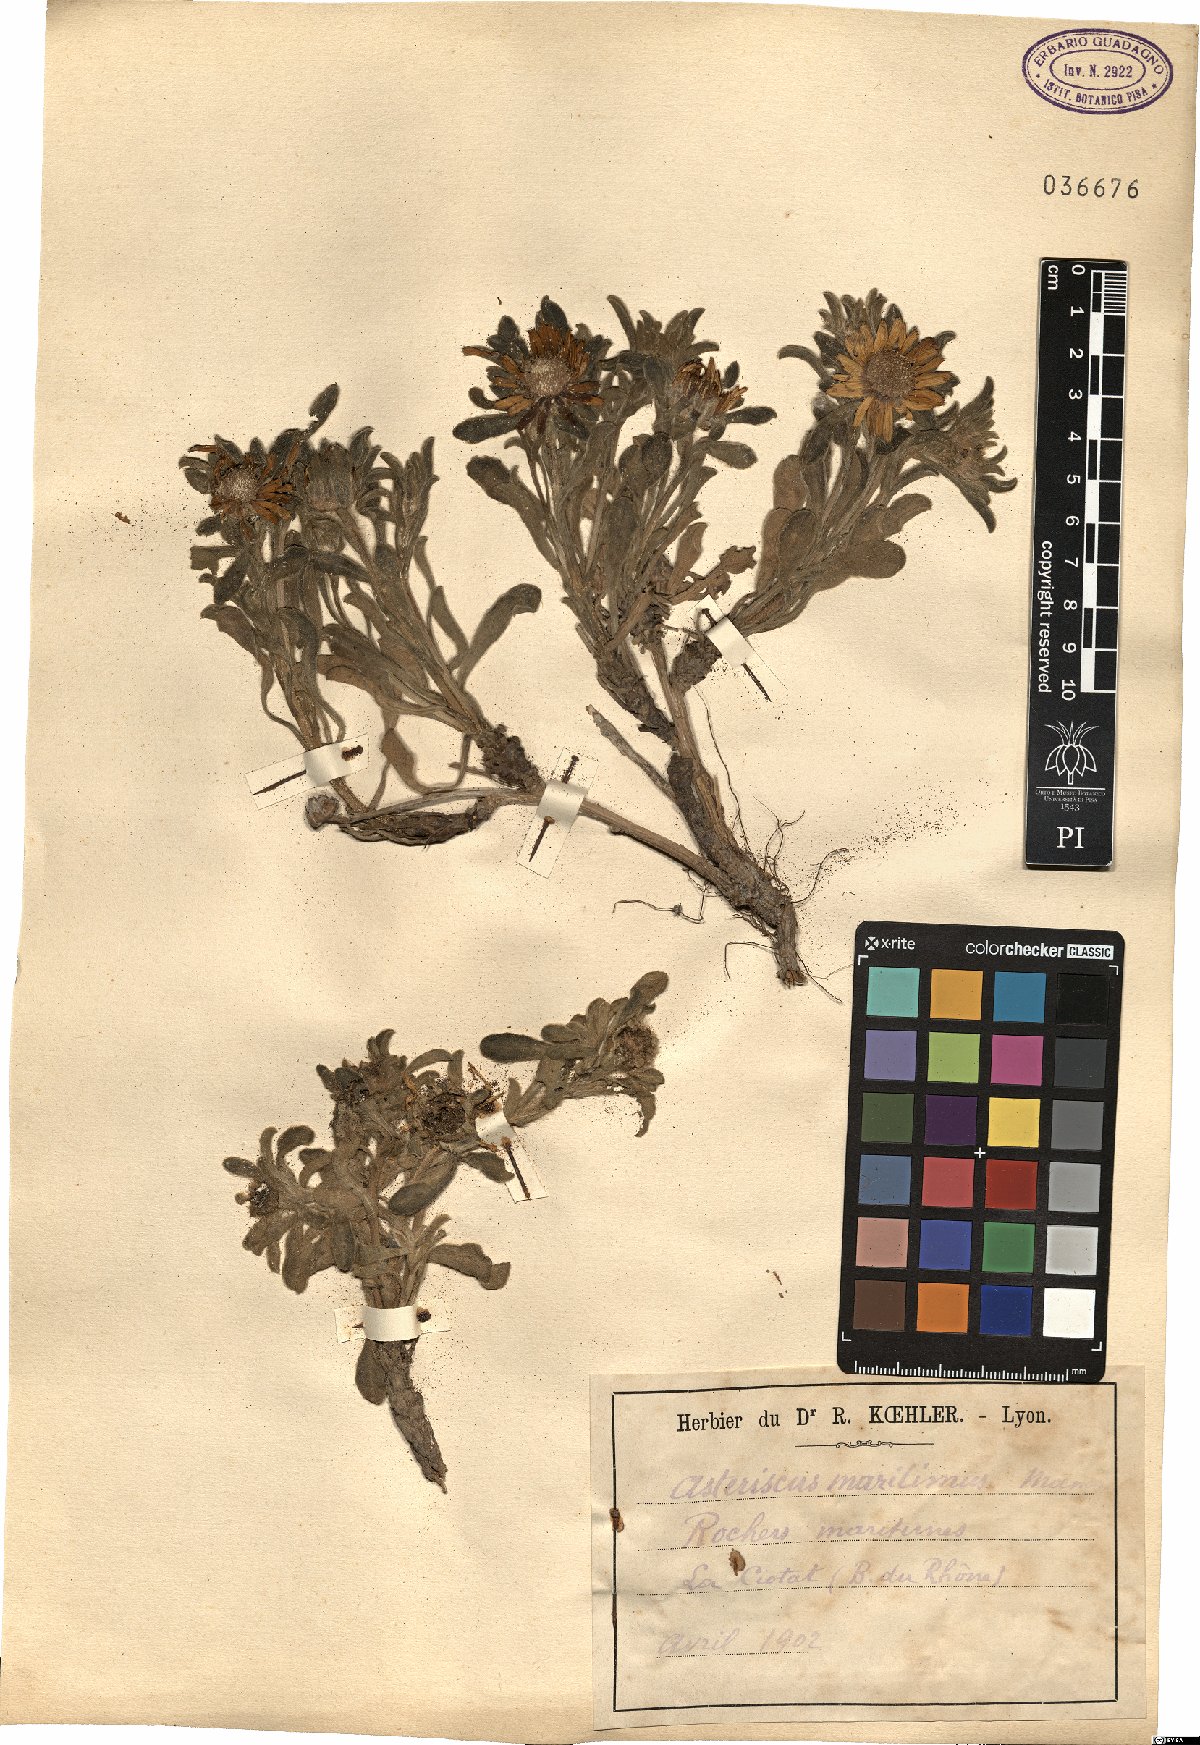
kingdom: Plantae
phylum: Tracheophyta
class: Magnoliopsida
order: Asterales
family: Asteraceae
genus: Pallenis
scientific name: Pallenis maritima
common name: Golden coin daisy
